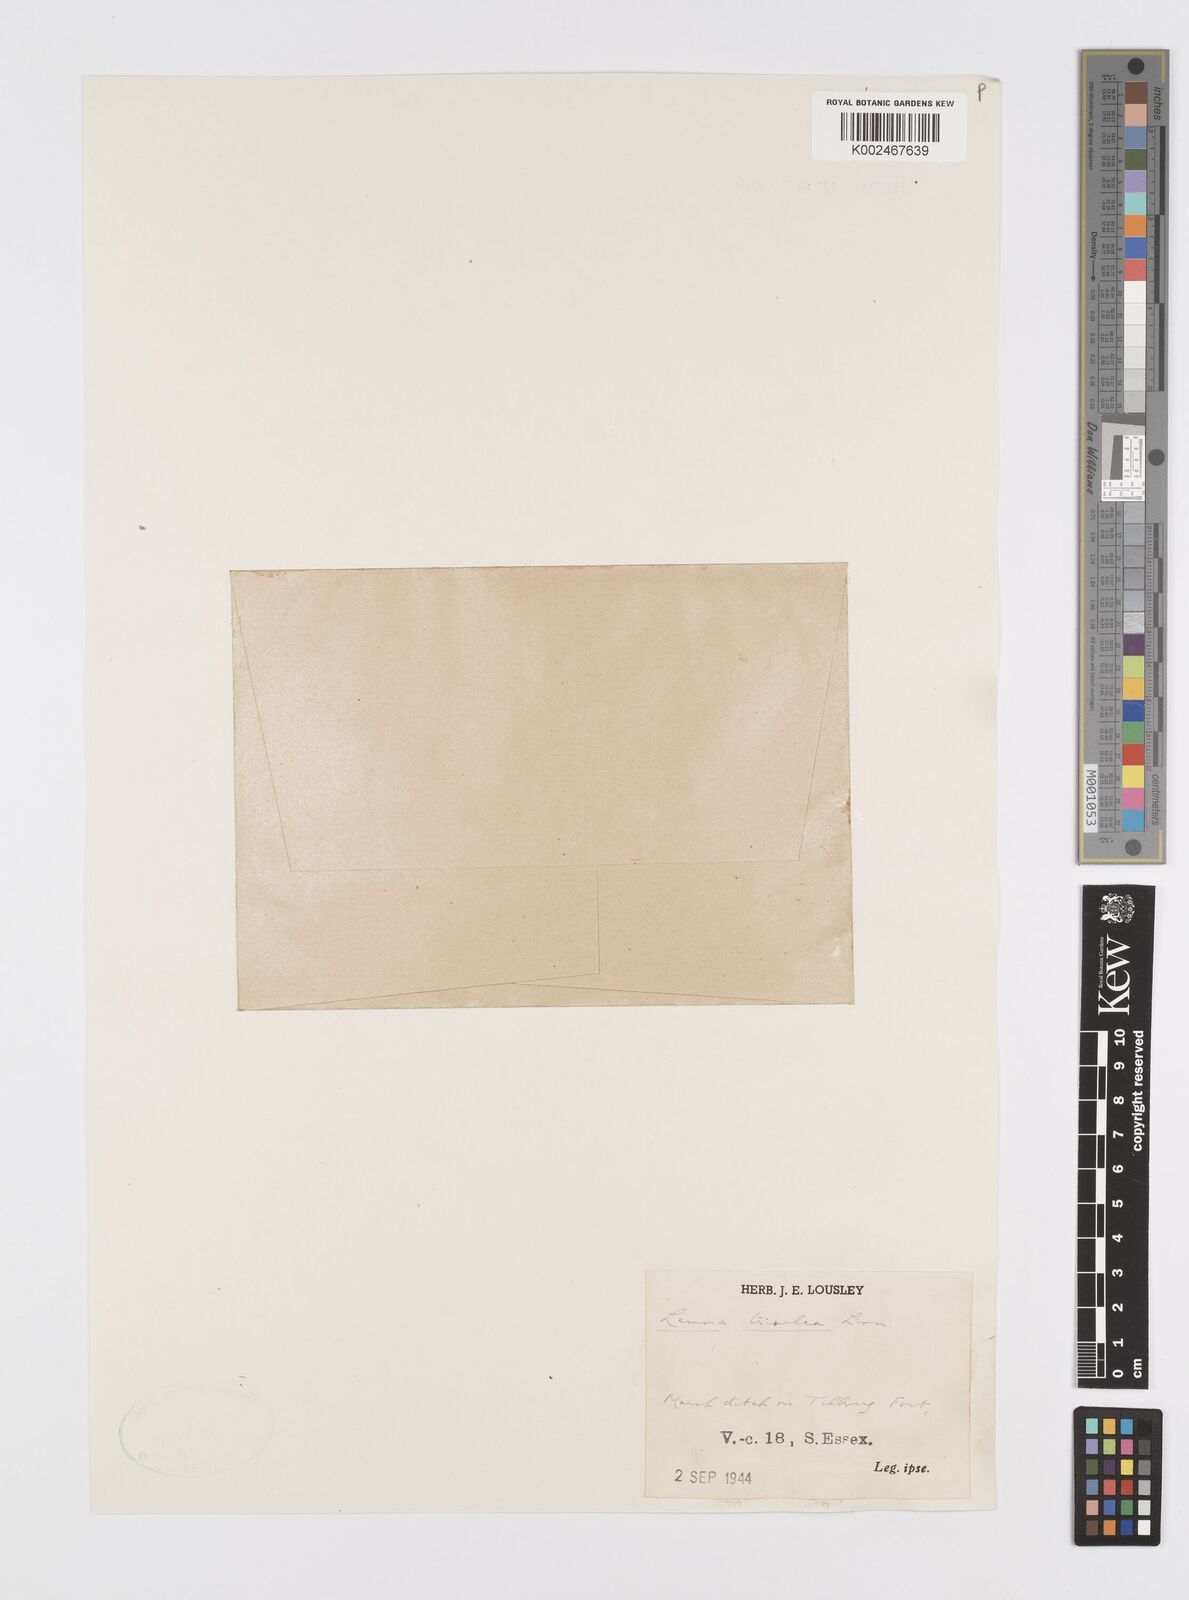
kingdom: Plantae
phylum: Tracheophyta
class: Liliopsida
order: Alismatales
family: Araceae
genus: Lemna
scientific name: Lemna trisulca
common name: Ivy-leaved duckweed
